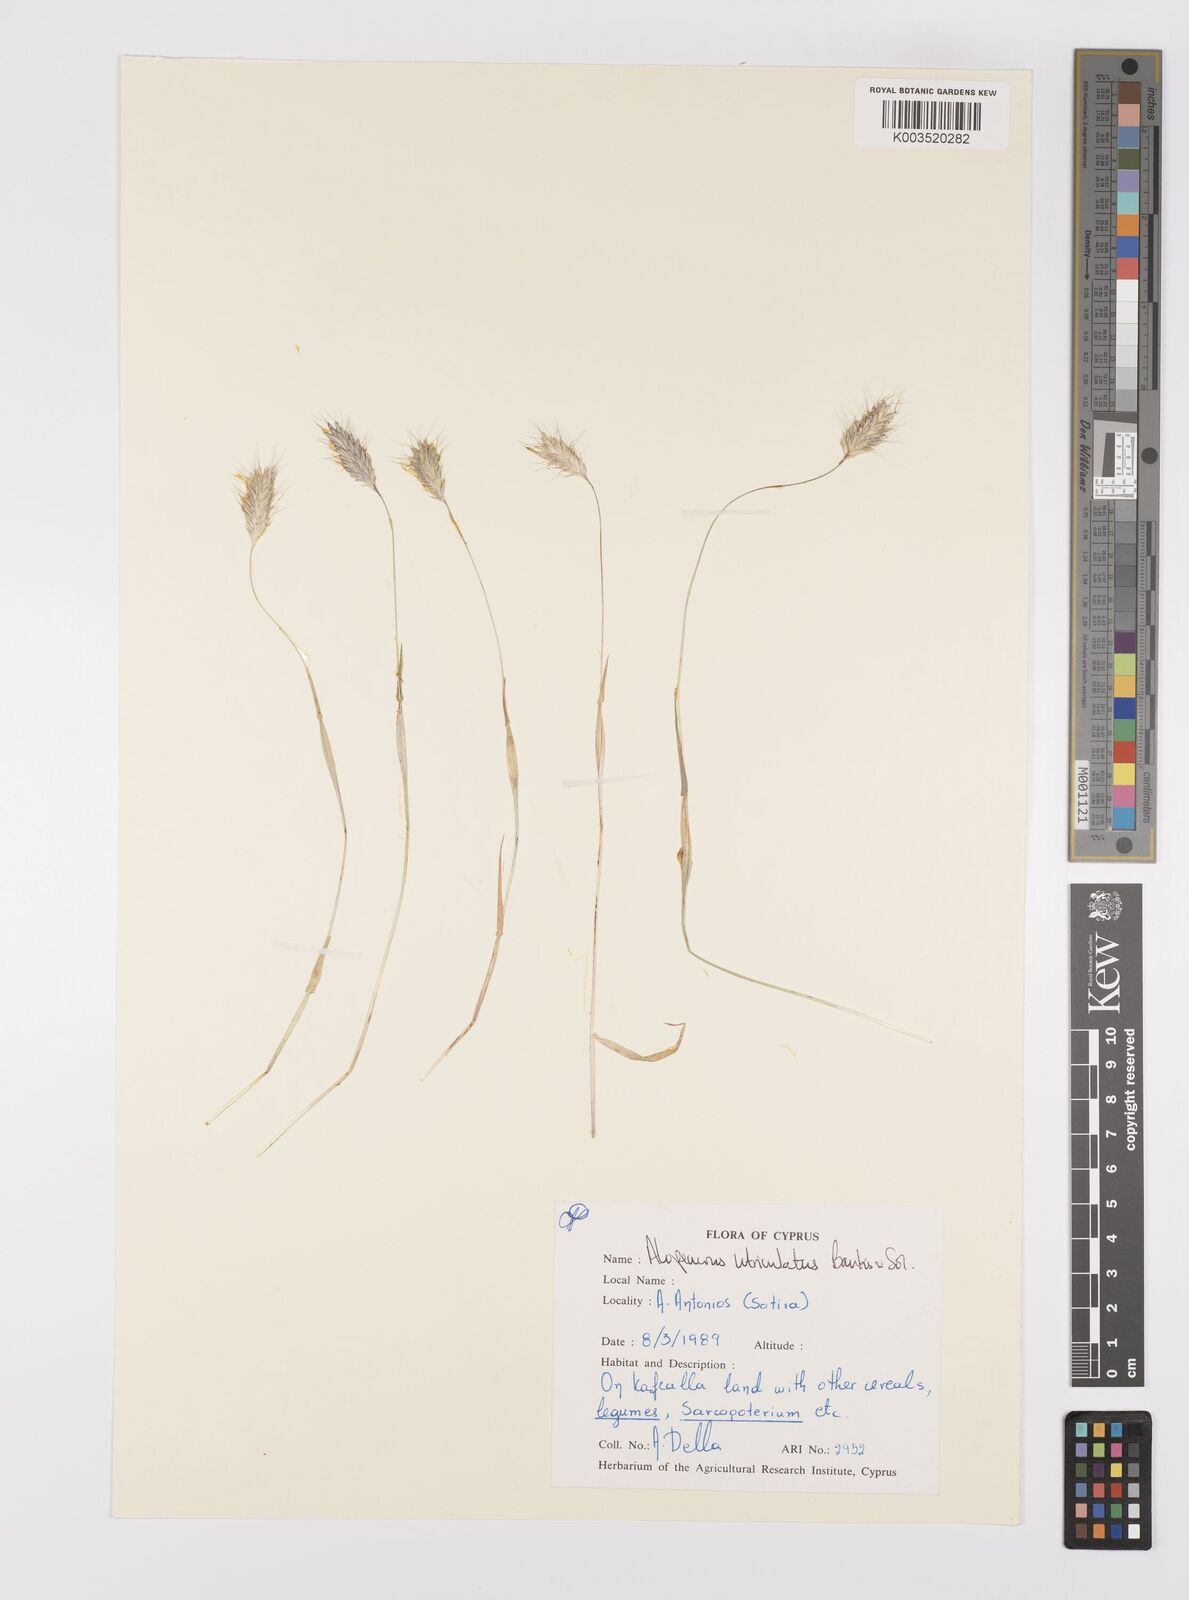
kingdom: Plantae
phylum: Tracheophyta
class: Liliopsida
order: Poales
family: Poaceae
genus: Alopecurus
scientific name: Alopecurus utriculatus
